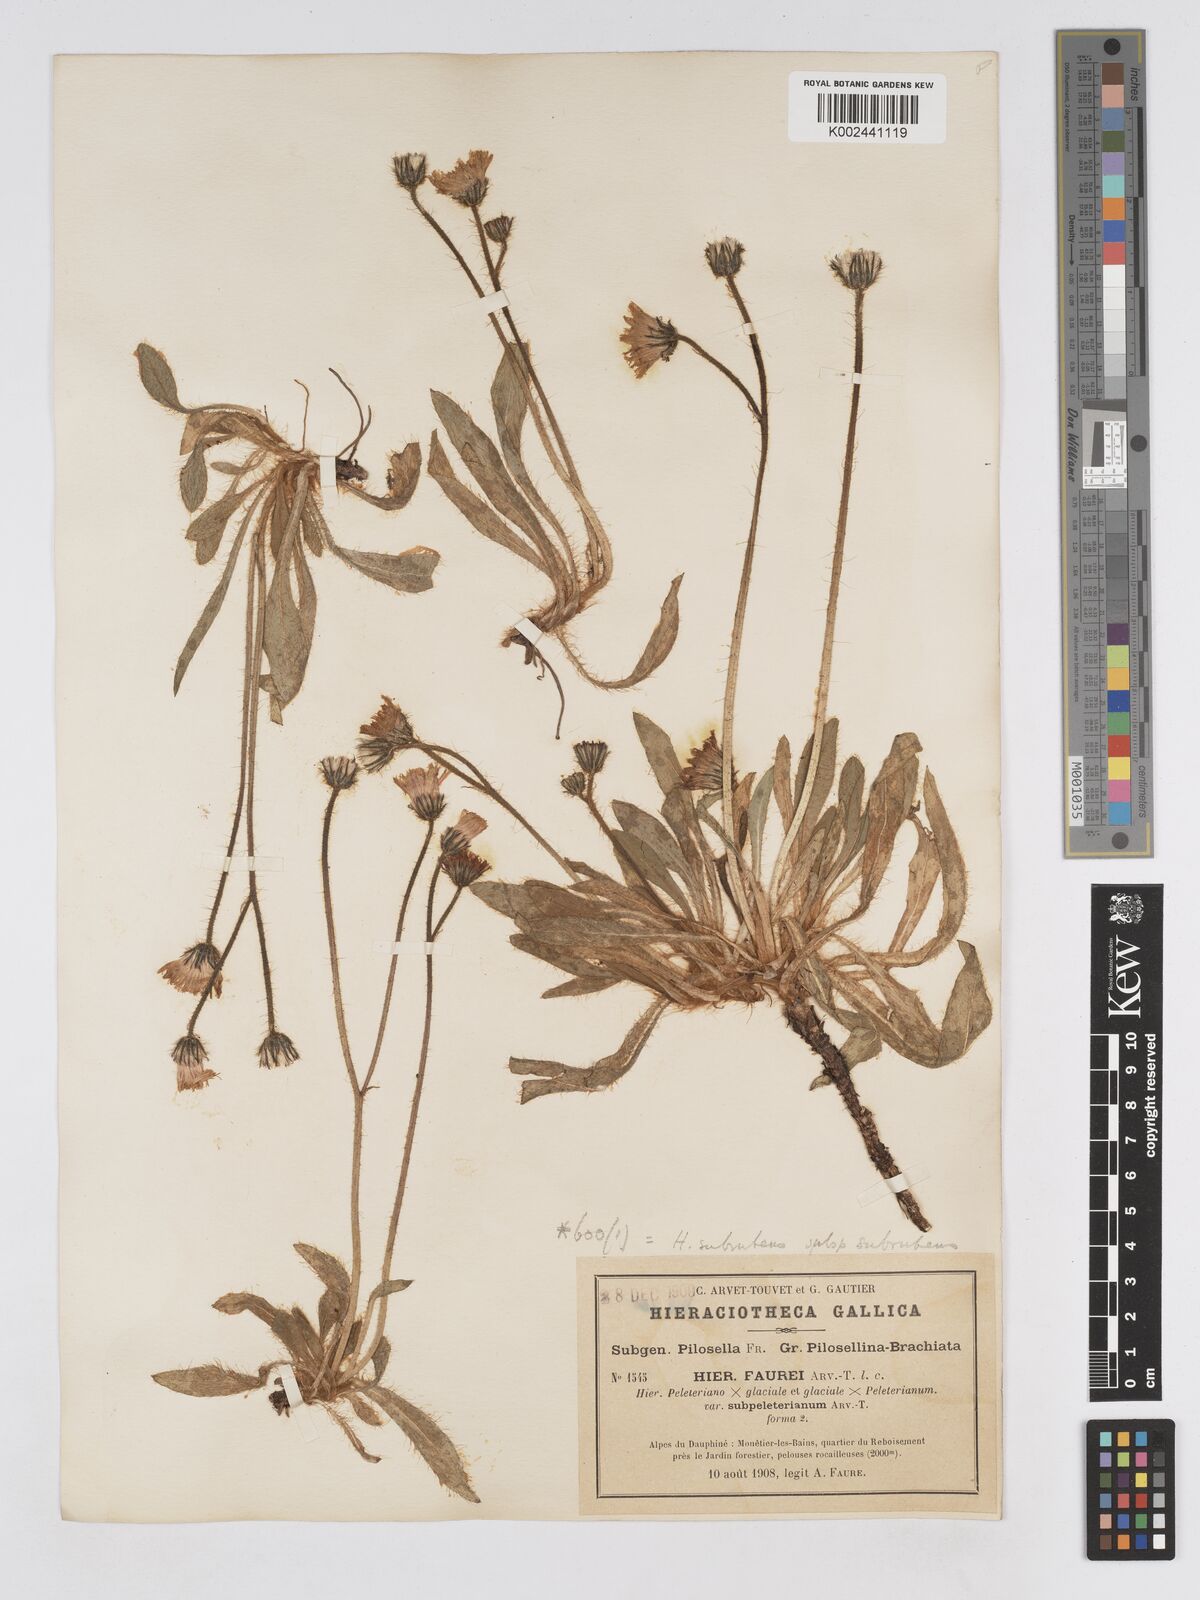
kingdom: Plantae
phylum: Tracheophyta
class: Magnoliopsida
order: Asterales
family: Asteraceae
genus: Pilosella
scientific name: Pilosella subrubens
